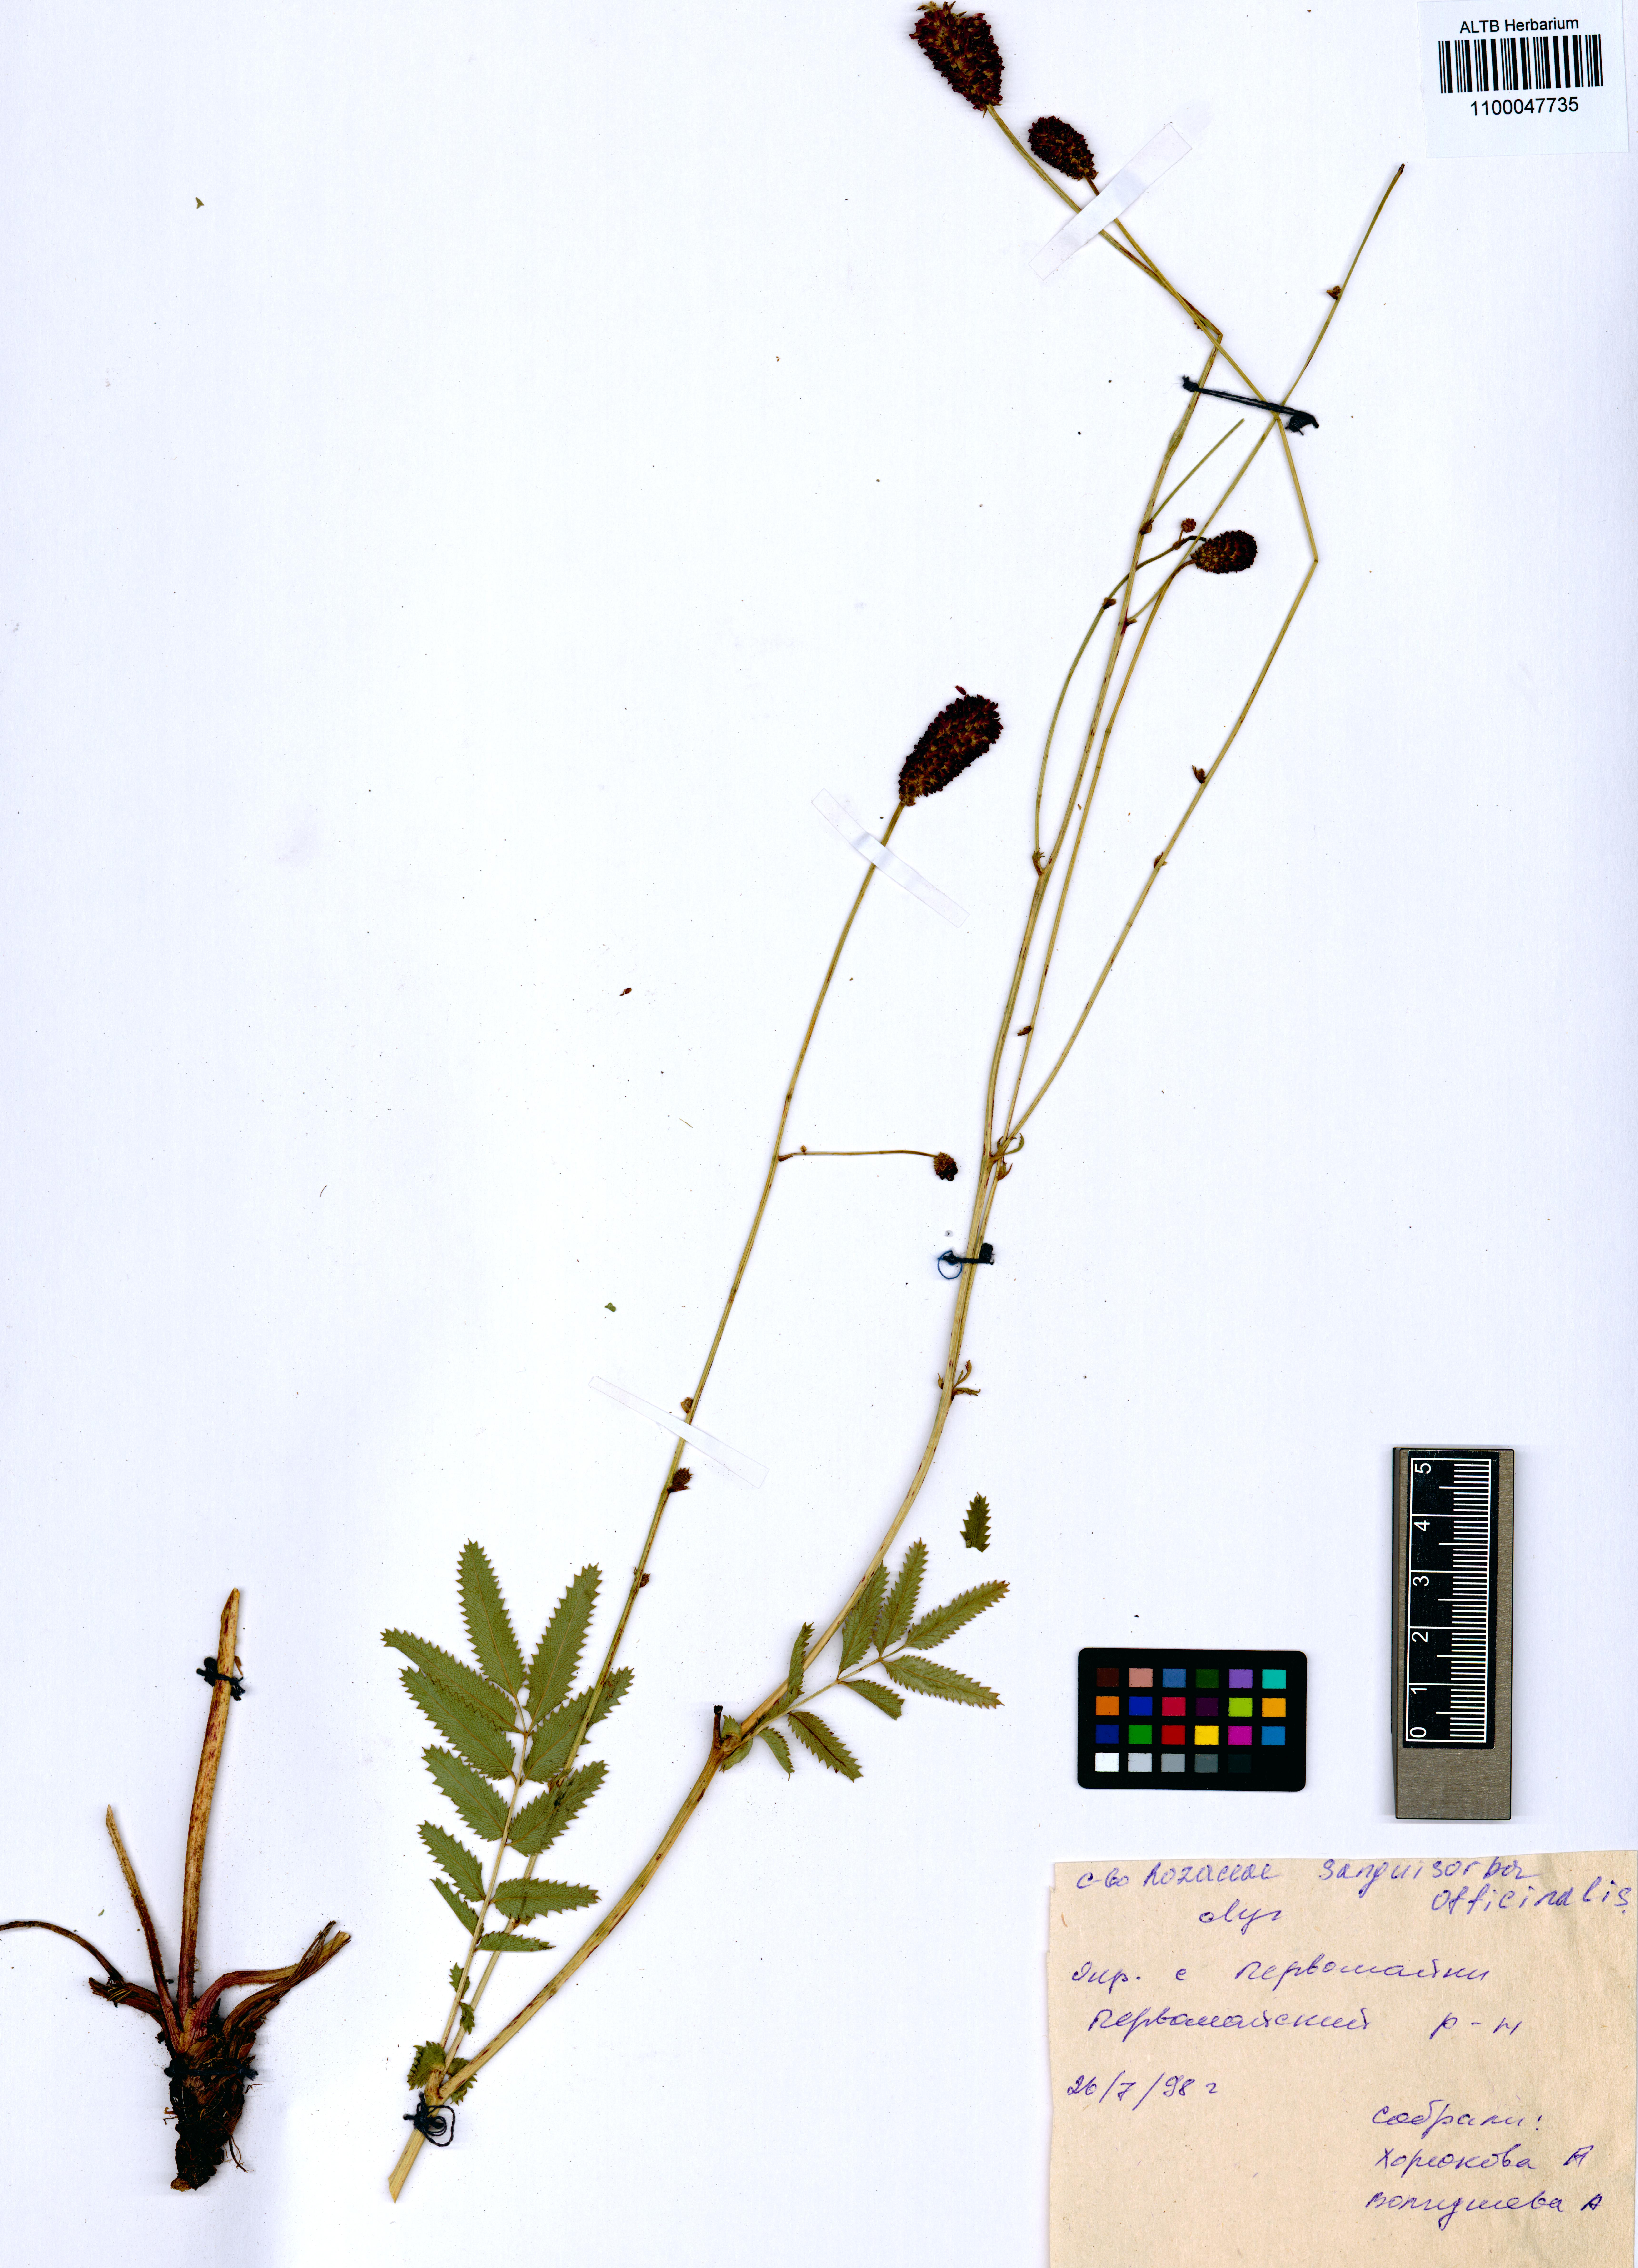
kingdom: Plantae
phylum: Tracheophyta
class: Magnoliopsida
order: Rosales
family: Rosaceae
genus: Sanguisorba
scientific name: Sanguisorba officinalis
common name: Great burnet
